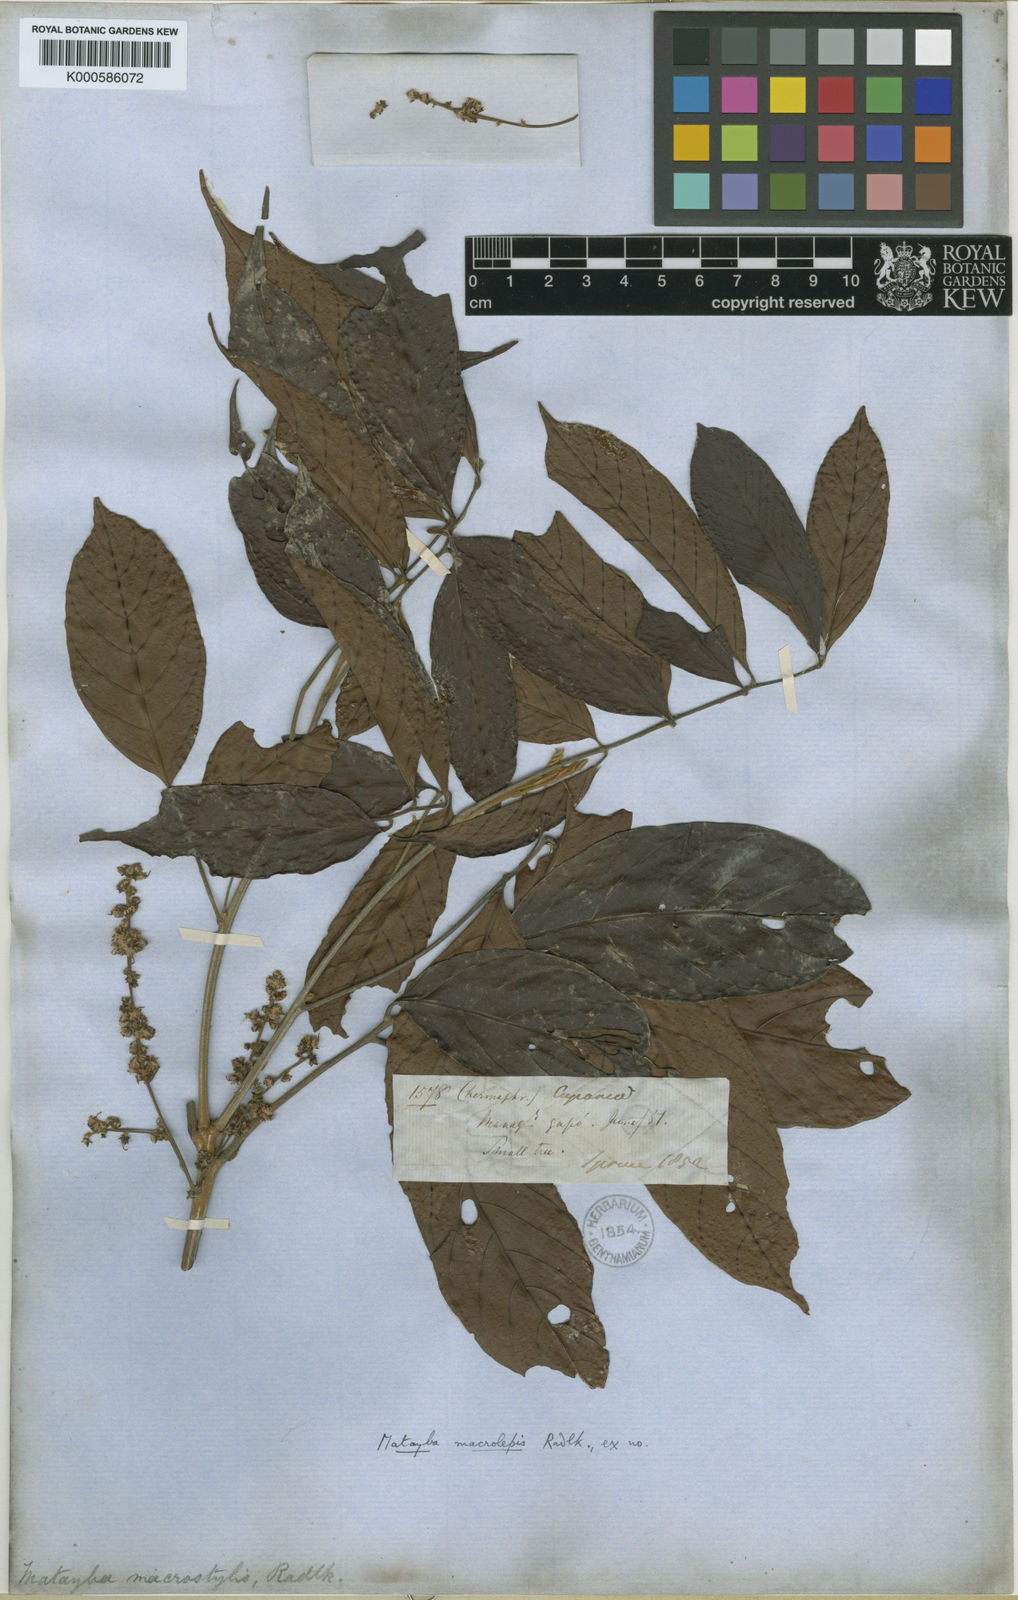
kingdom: Plantae
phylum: Tracheophyta
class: Magnoliopsida
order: Sapindales
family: Sapindaceae
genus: Cupania
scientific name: Cupania macrostylis
